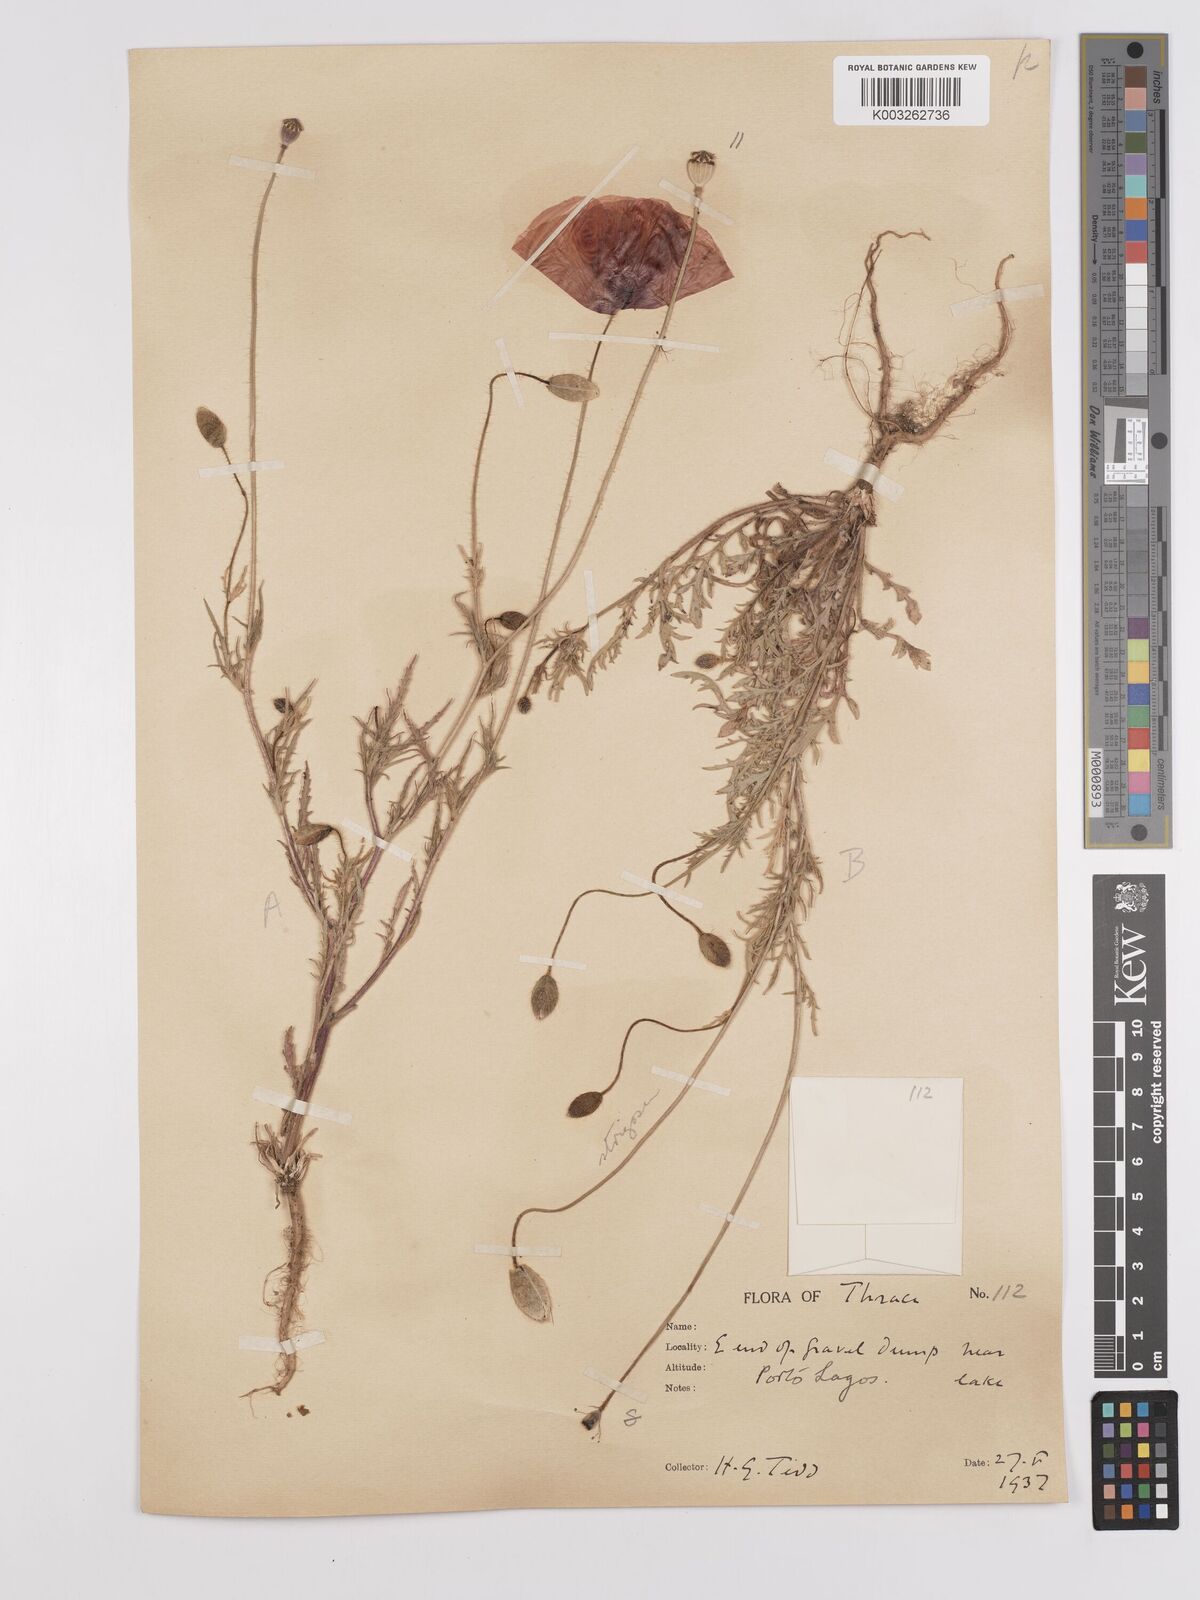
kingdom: Plantae
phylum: Tracheophyta
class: Magnoliopsida
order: Ranunculales
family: Papaveraceae
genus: Papaver
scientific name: Papaver
